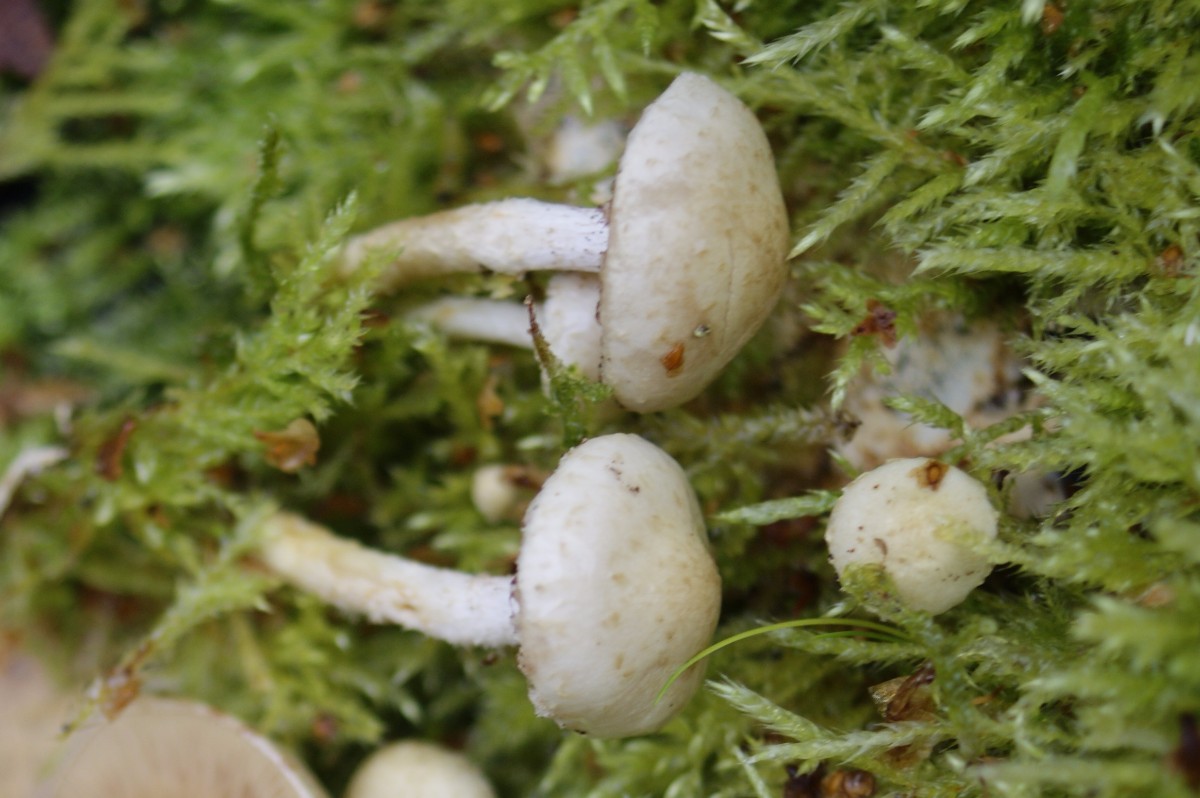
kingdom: Fungi
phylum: Basidiomycota
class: Agaricomycetes
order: Agaricales
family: Strophariaceae
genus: Pholiota
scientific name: Pholiota gummosa
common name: grøngul skælhat
